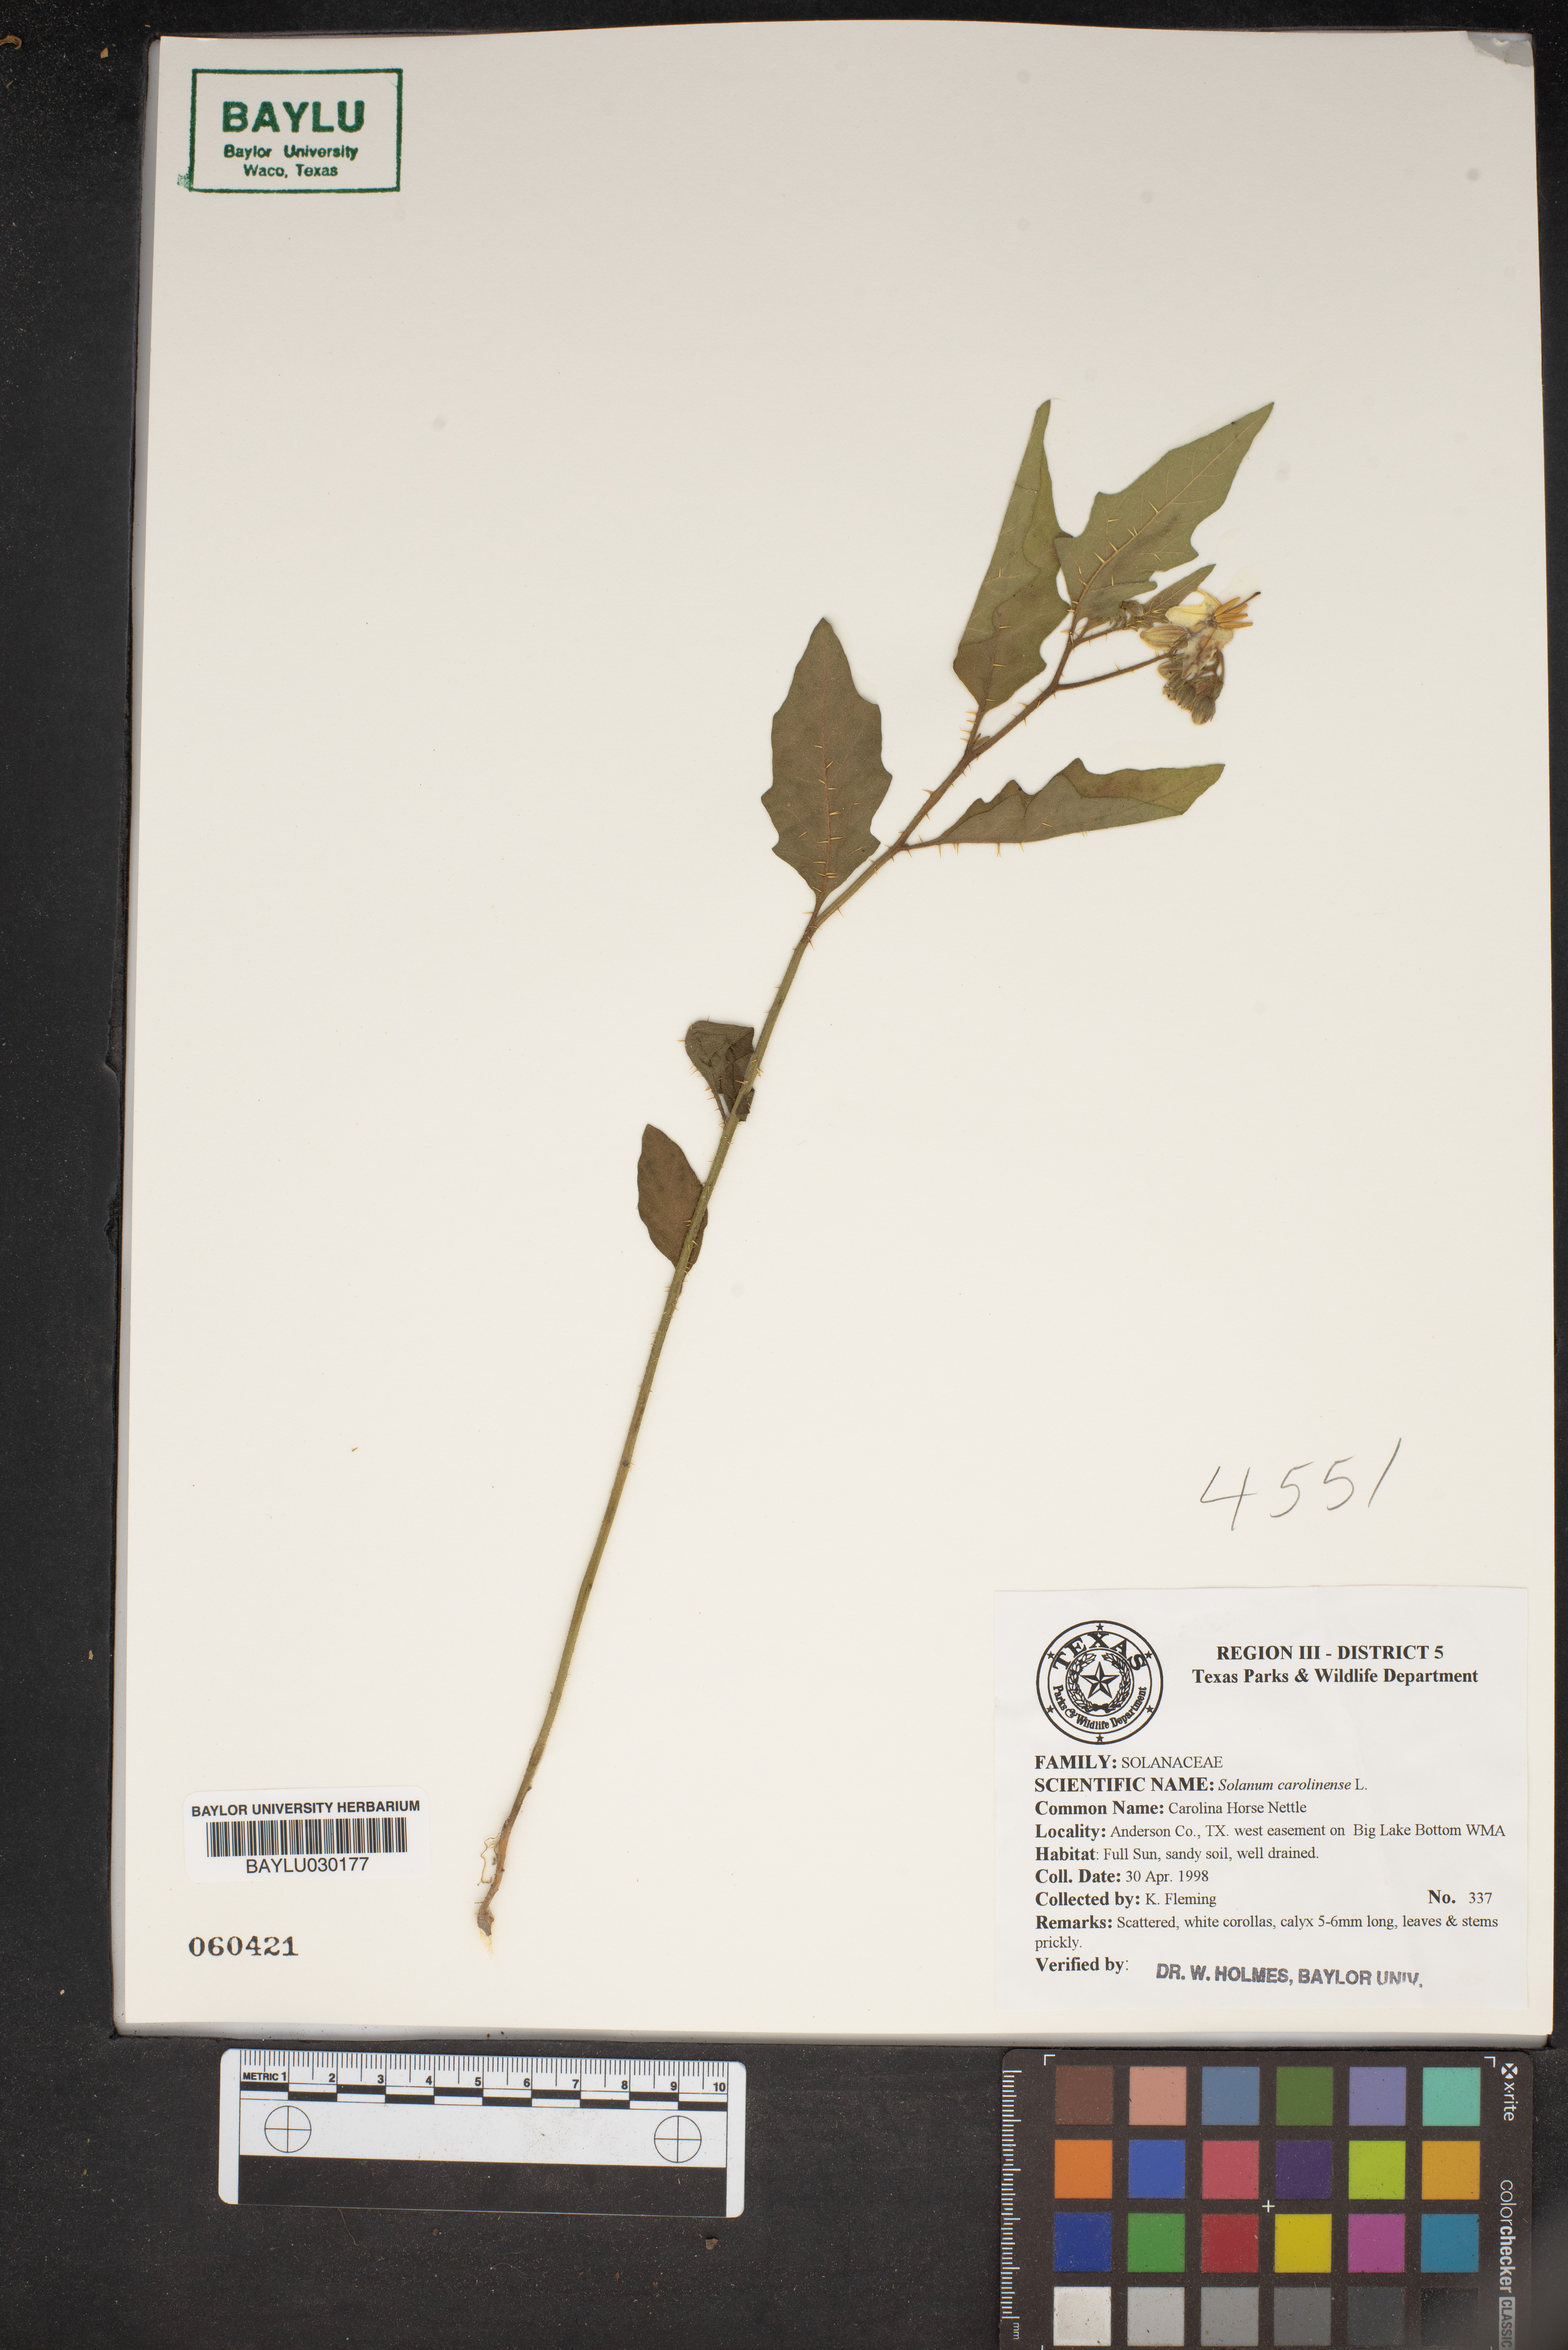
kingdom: Plantae
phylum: Tracheophyta
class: Magnoliopsida
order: Solanales
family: Solanaceae
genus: Solanum
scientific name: Solanum carolinense
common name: Horse-nettle
